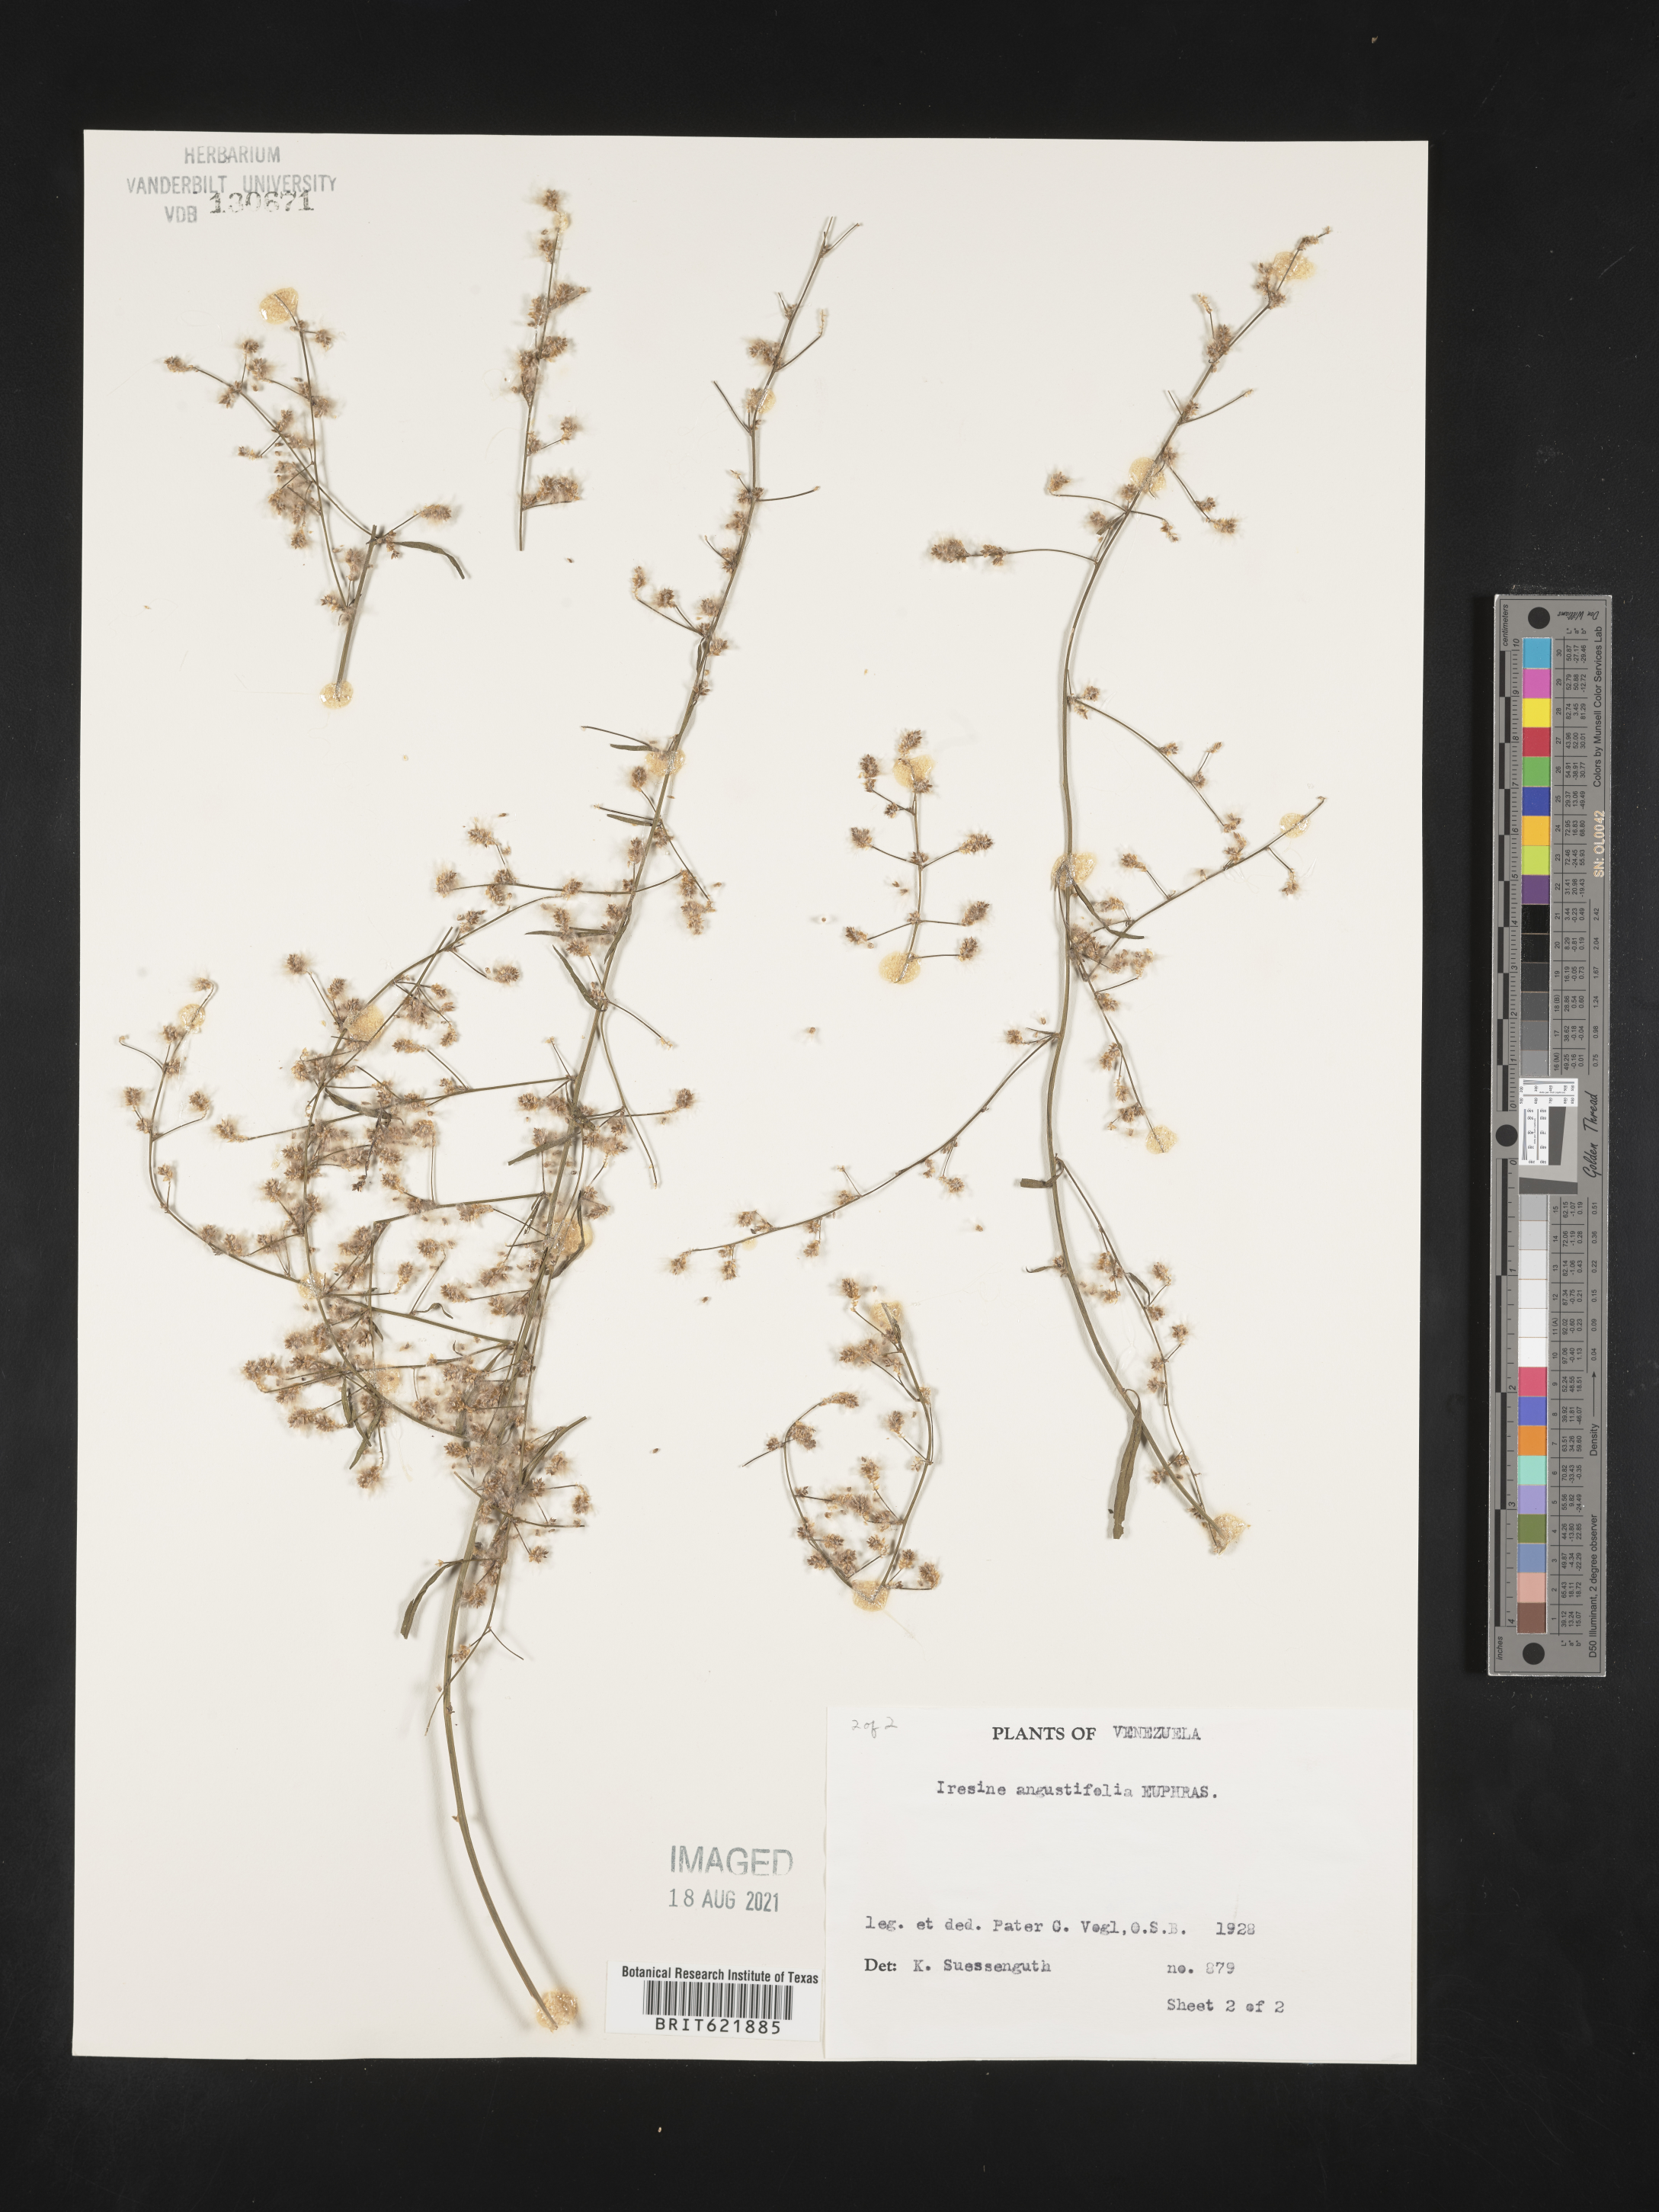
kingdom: Plantae
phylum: Tracheophyta
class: Magnoliopsida
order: Caryophyllales
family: Amaranthaceae
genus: Iresine
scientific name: Iresine interrupta
